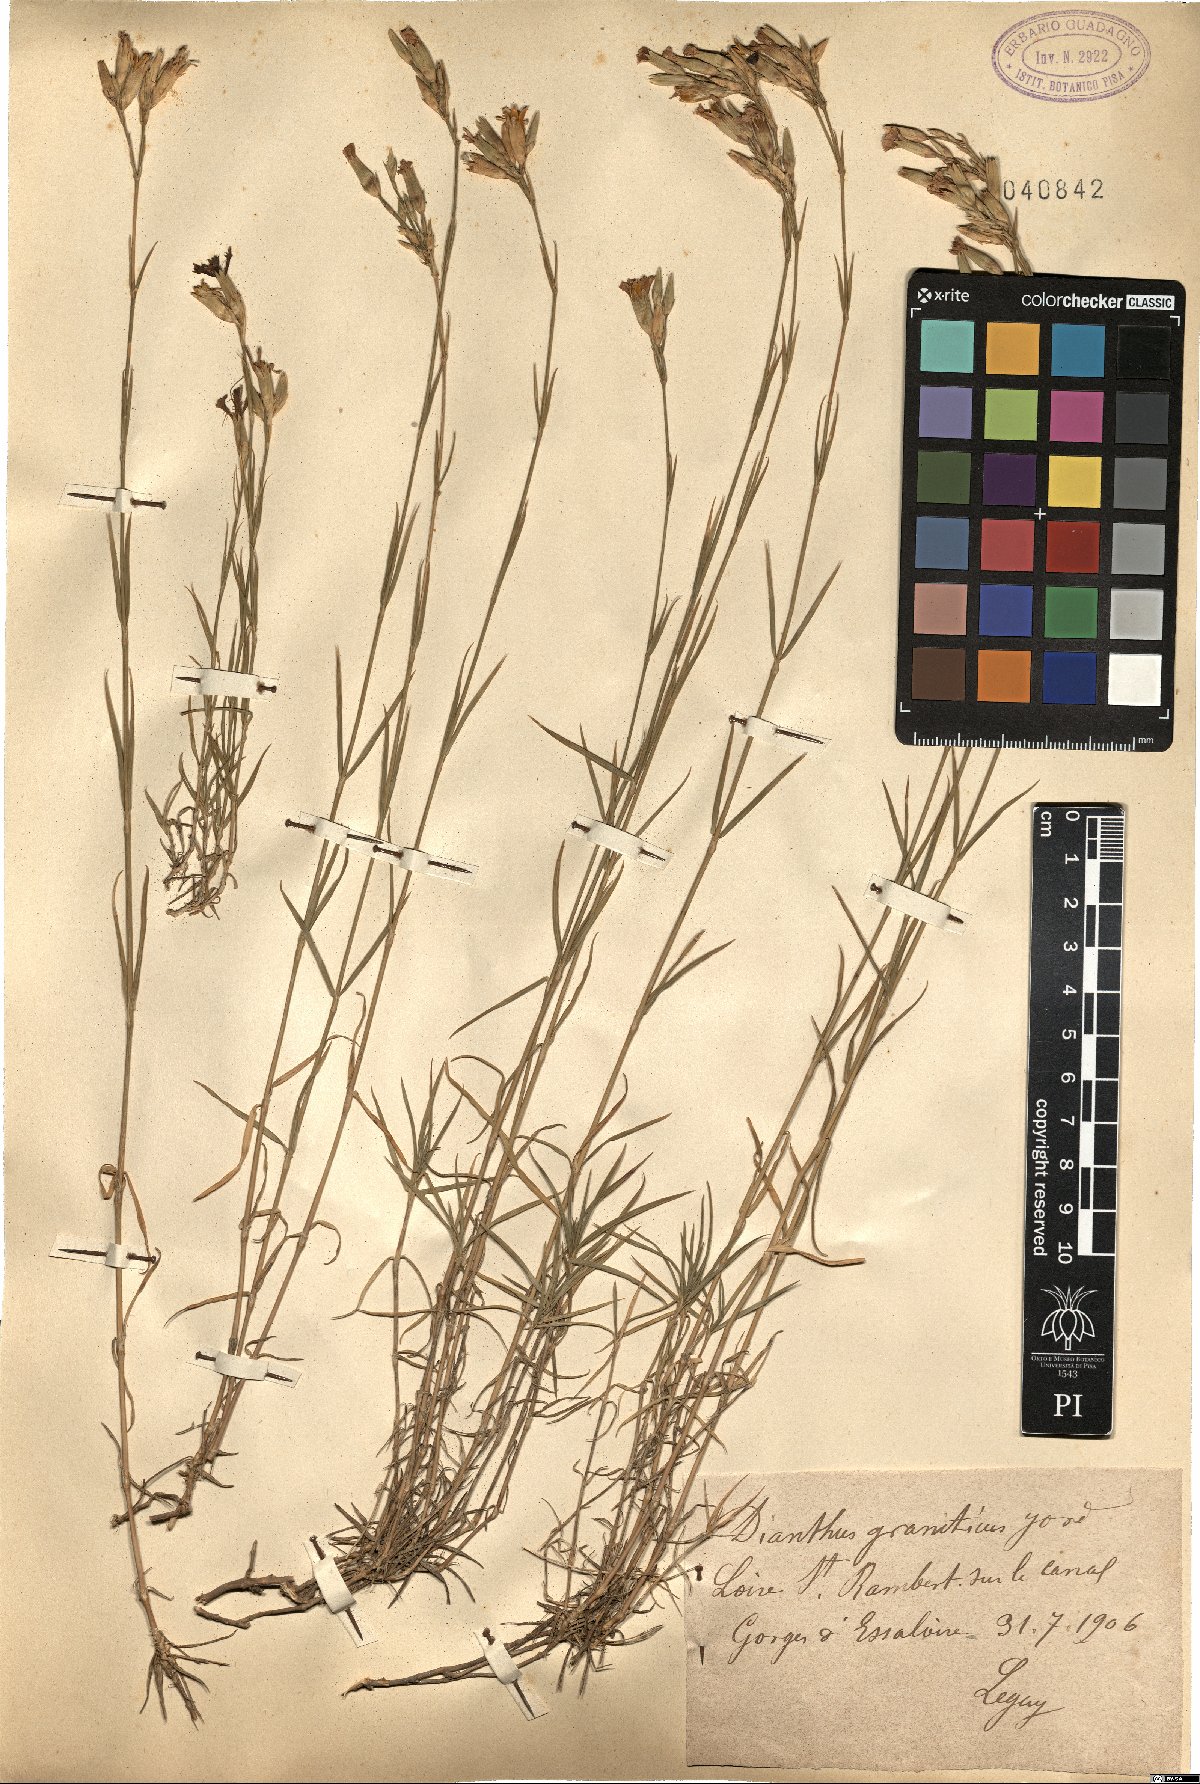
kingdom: Plantae
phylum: Tracheophyta
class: Magnoliopsida
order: Caryophyllales
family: Caryophyllaceae
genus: Dianthus
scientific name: Dianthus graniticus
